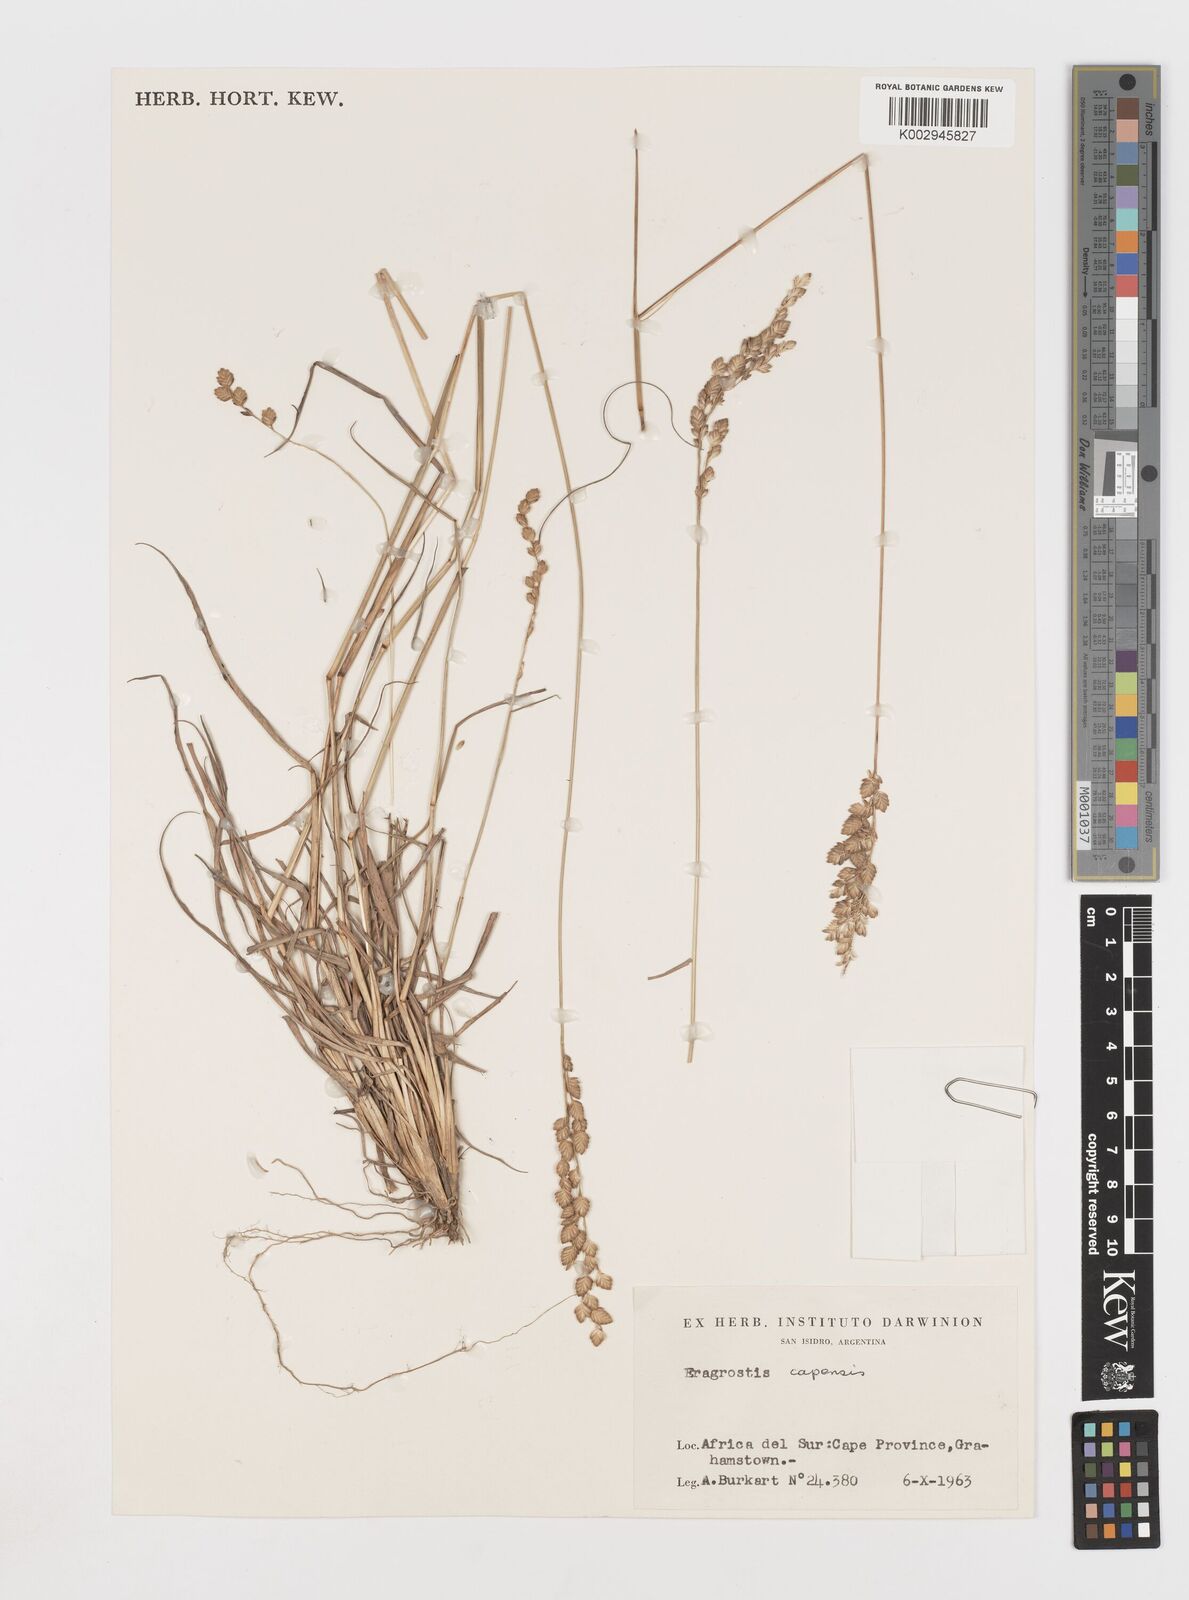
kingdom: Plantae
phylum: Tracheophyta
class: Liliopsida
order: Poales
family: Poaceae
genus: Eragrostis
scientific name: Eragrostis capensis
